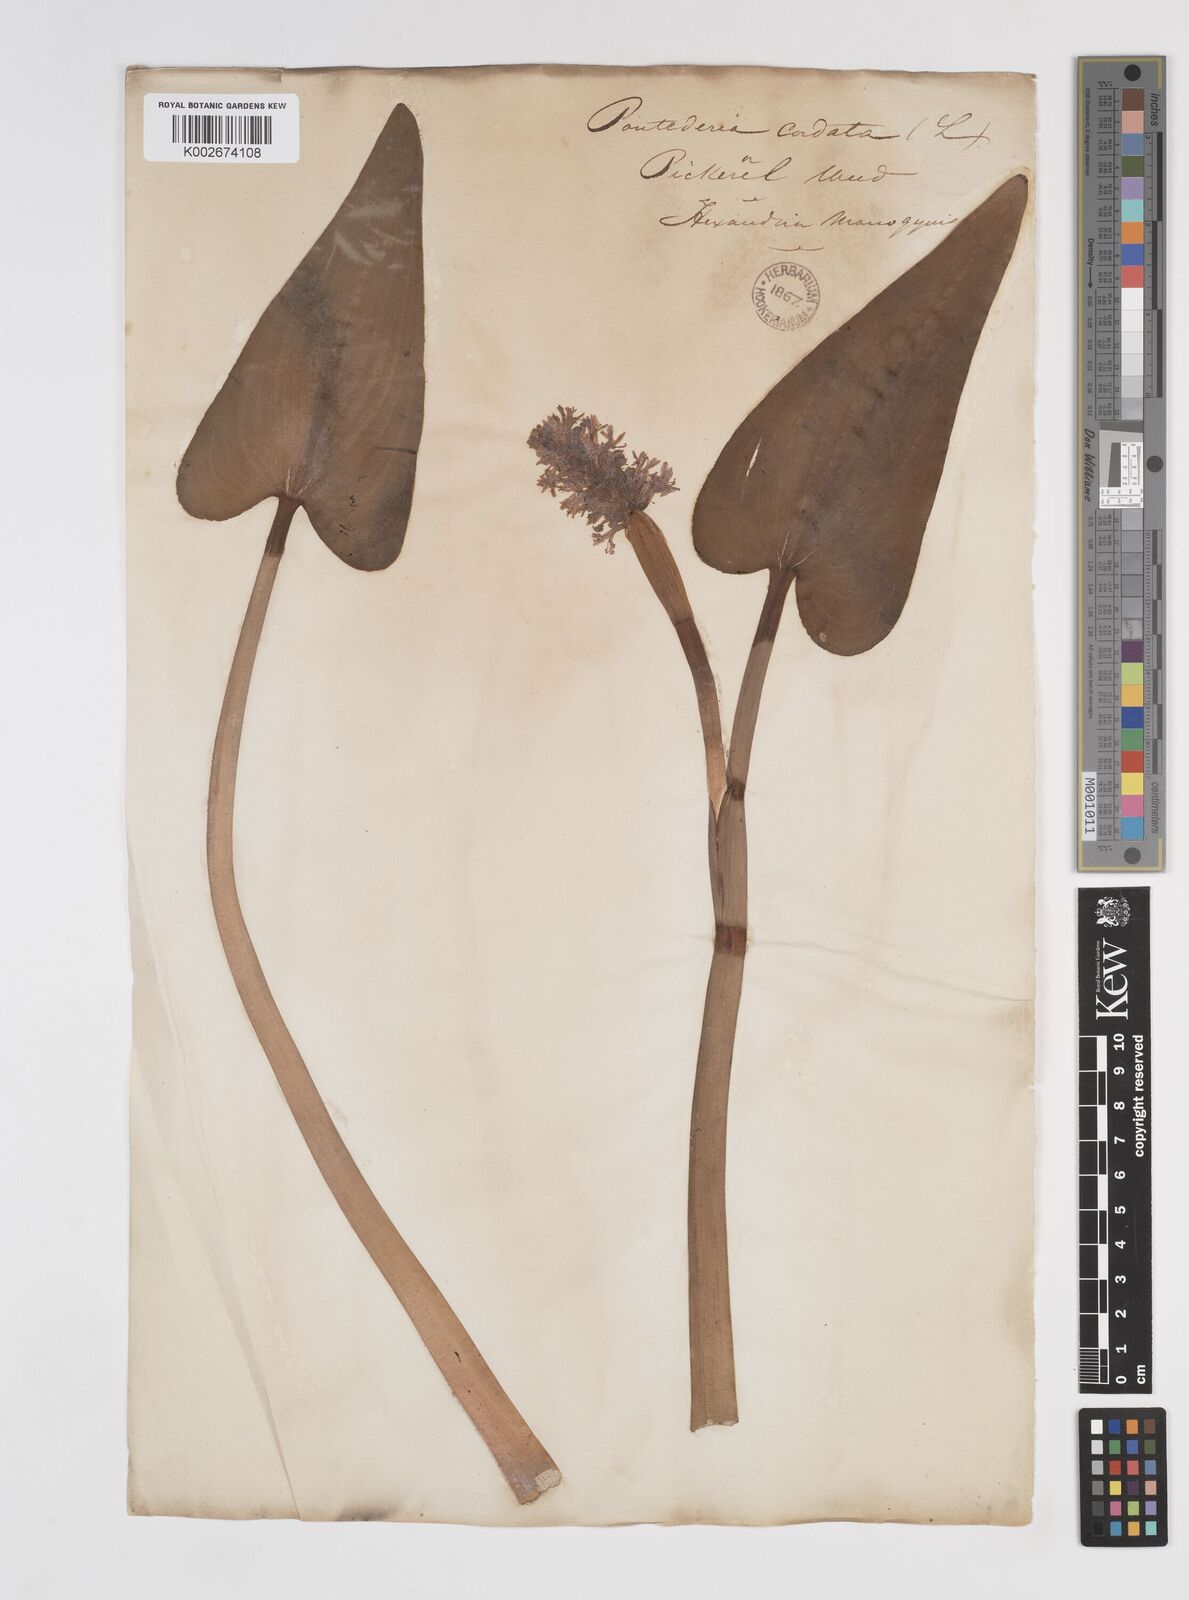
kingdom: Plantae
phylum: Tracheophyta
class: Liliopsida
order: Commelinales
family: Pontederiaceae
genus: Pontederia
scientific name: Pontederia cordata
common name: Pickerelweed
